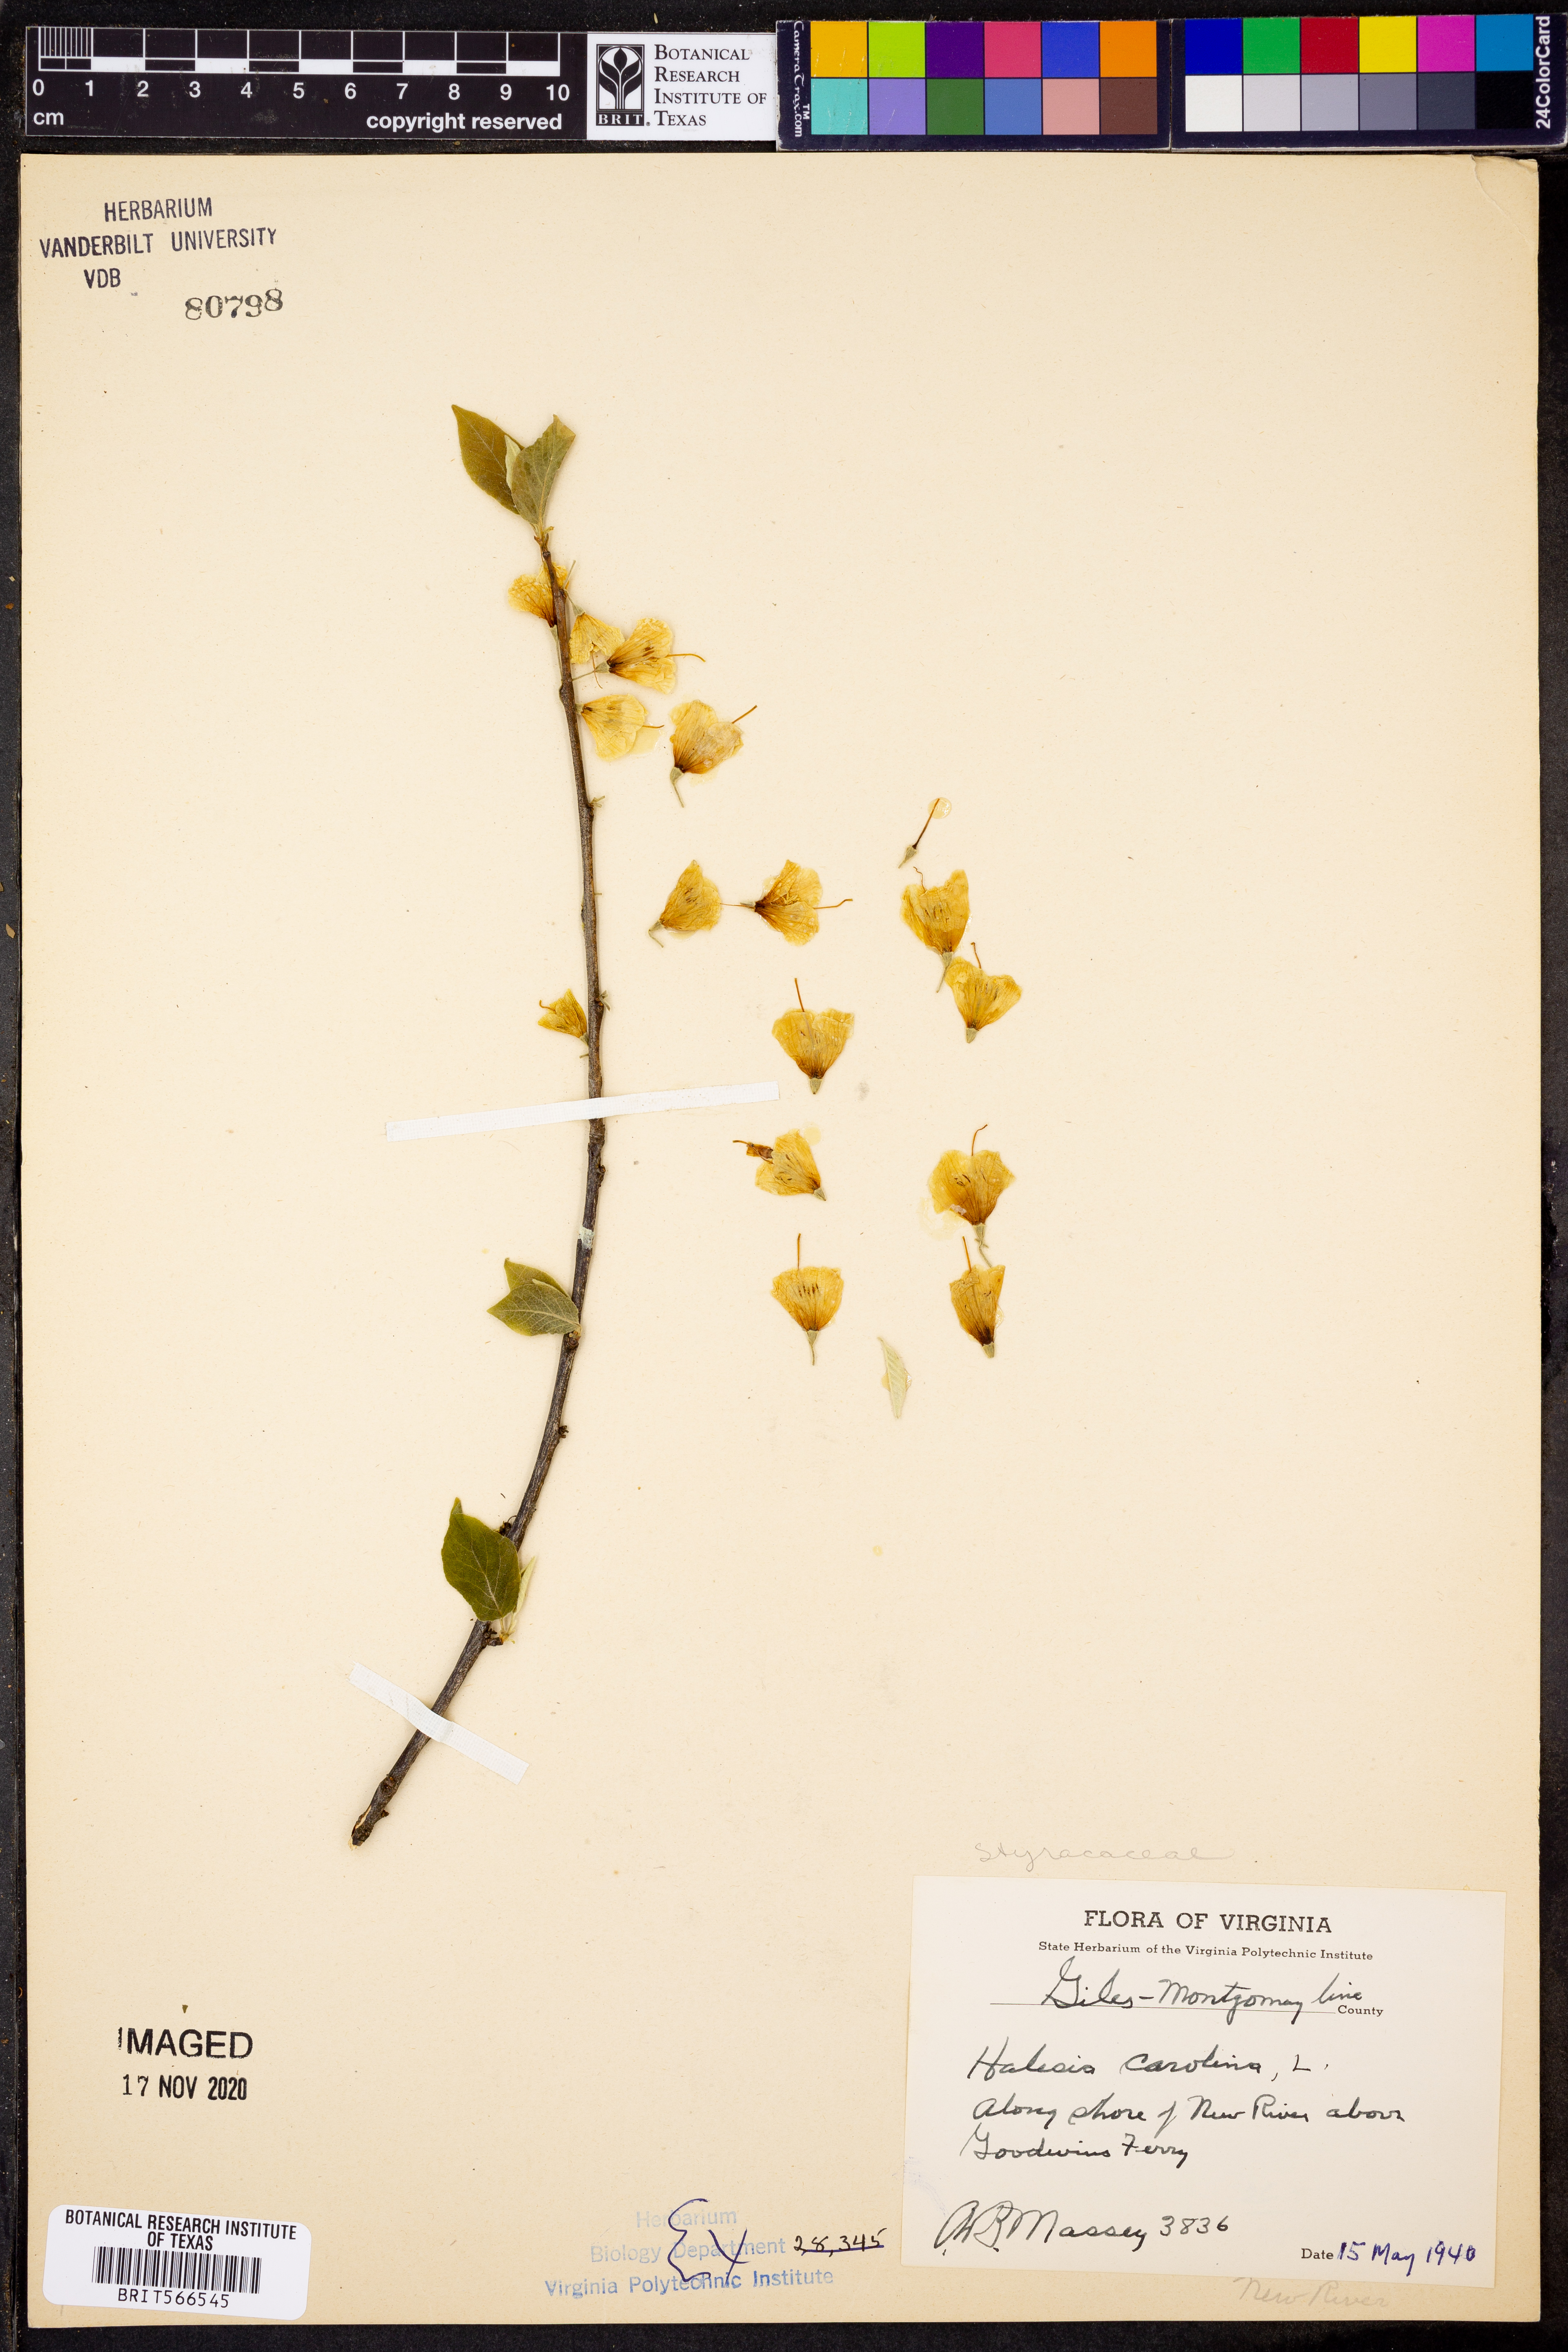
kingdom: Plantae
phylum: Tracheophyta
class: Magnoliopsida
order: Ericales
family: Styracaceae
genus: Halesia
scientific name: Halesia carolina
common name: Carolina silverbell
